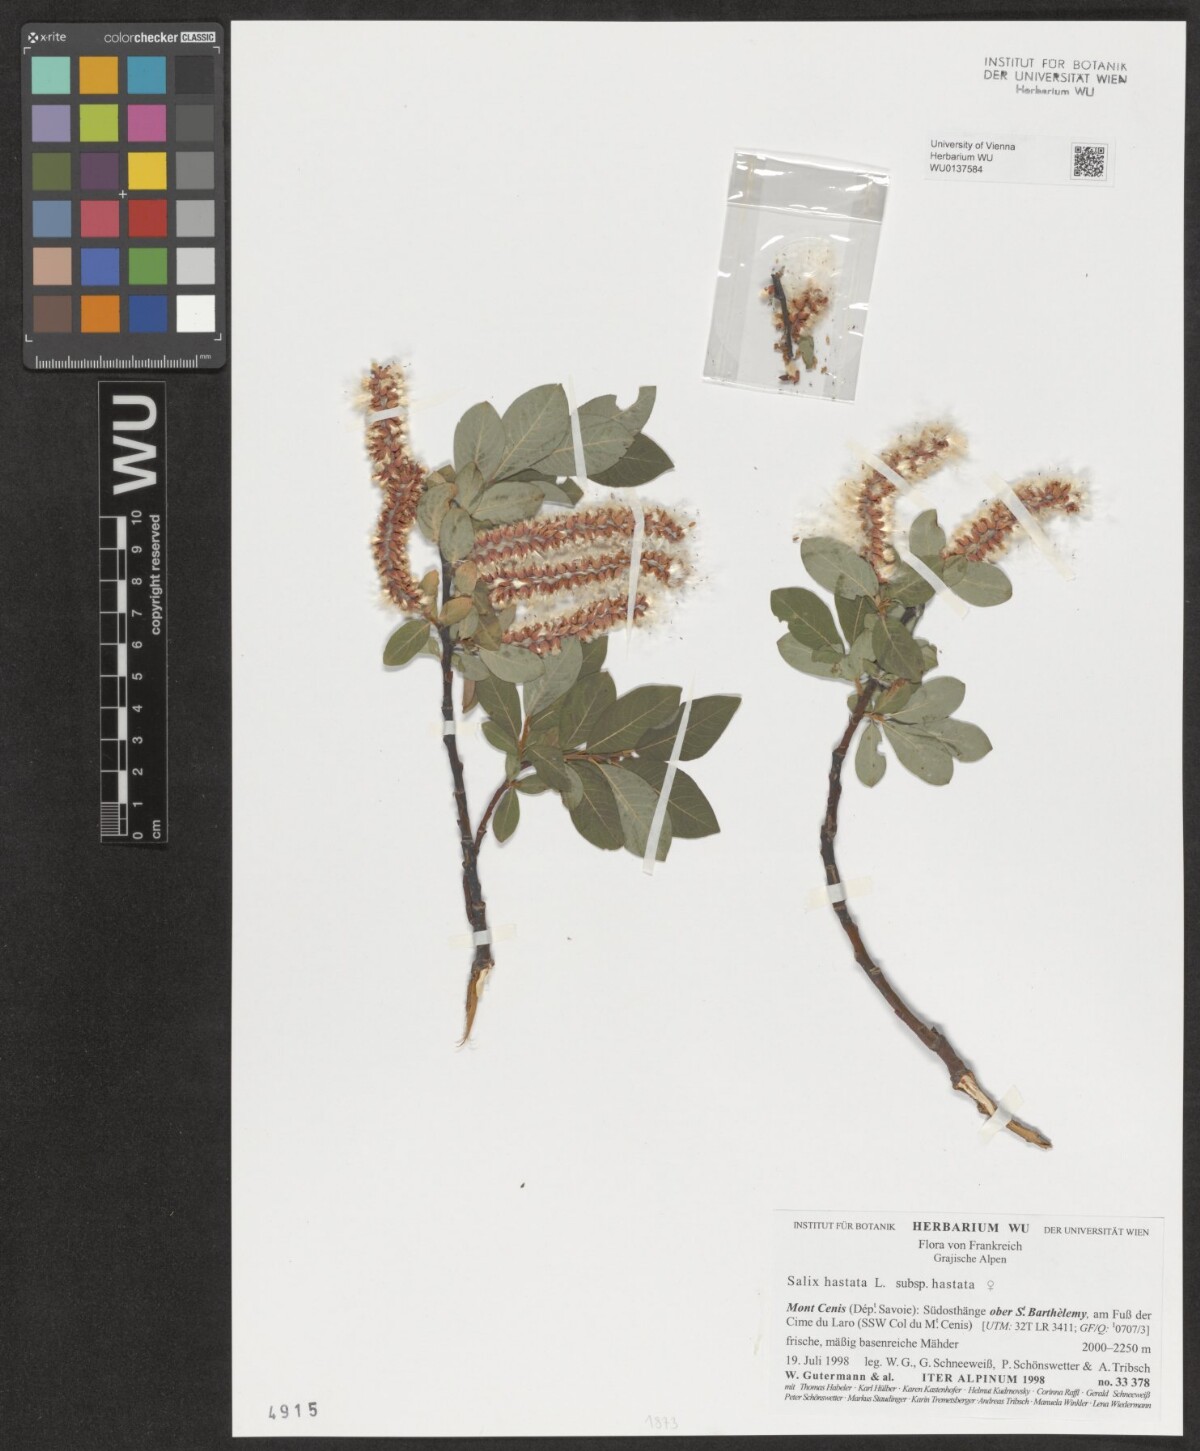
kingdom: Plantae
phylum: Tracheophyta
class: Magnoliopsida
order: Malpighiales
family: Salicaceae
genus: Salix
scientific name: Salix hastata
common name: Halberd willow
